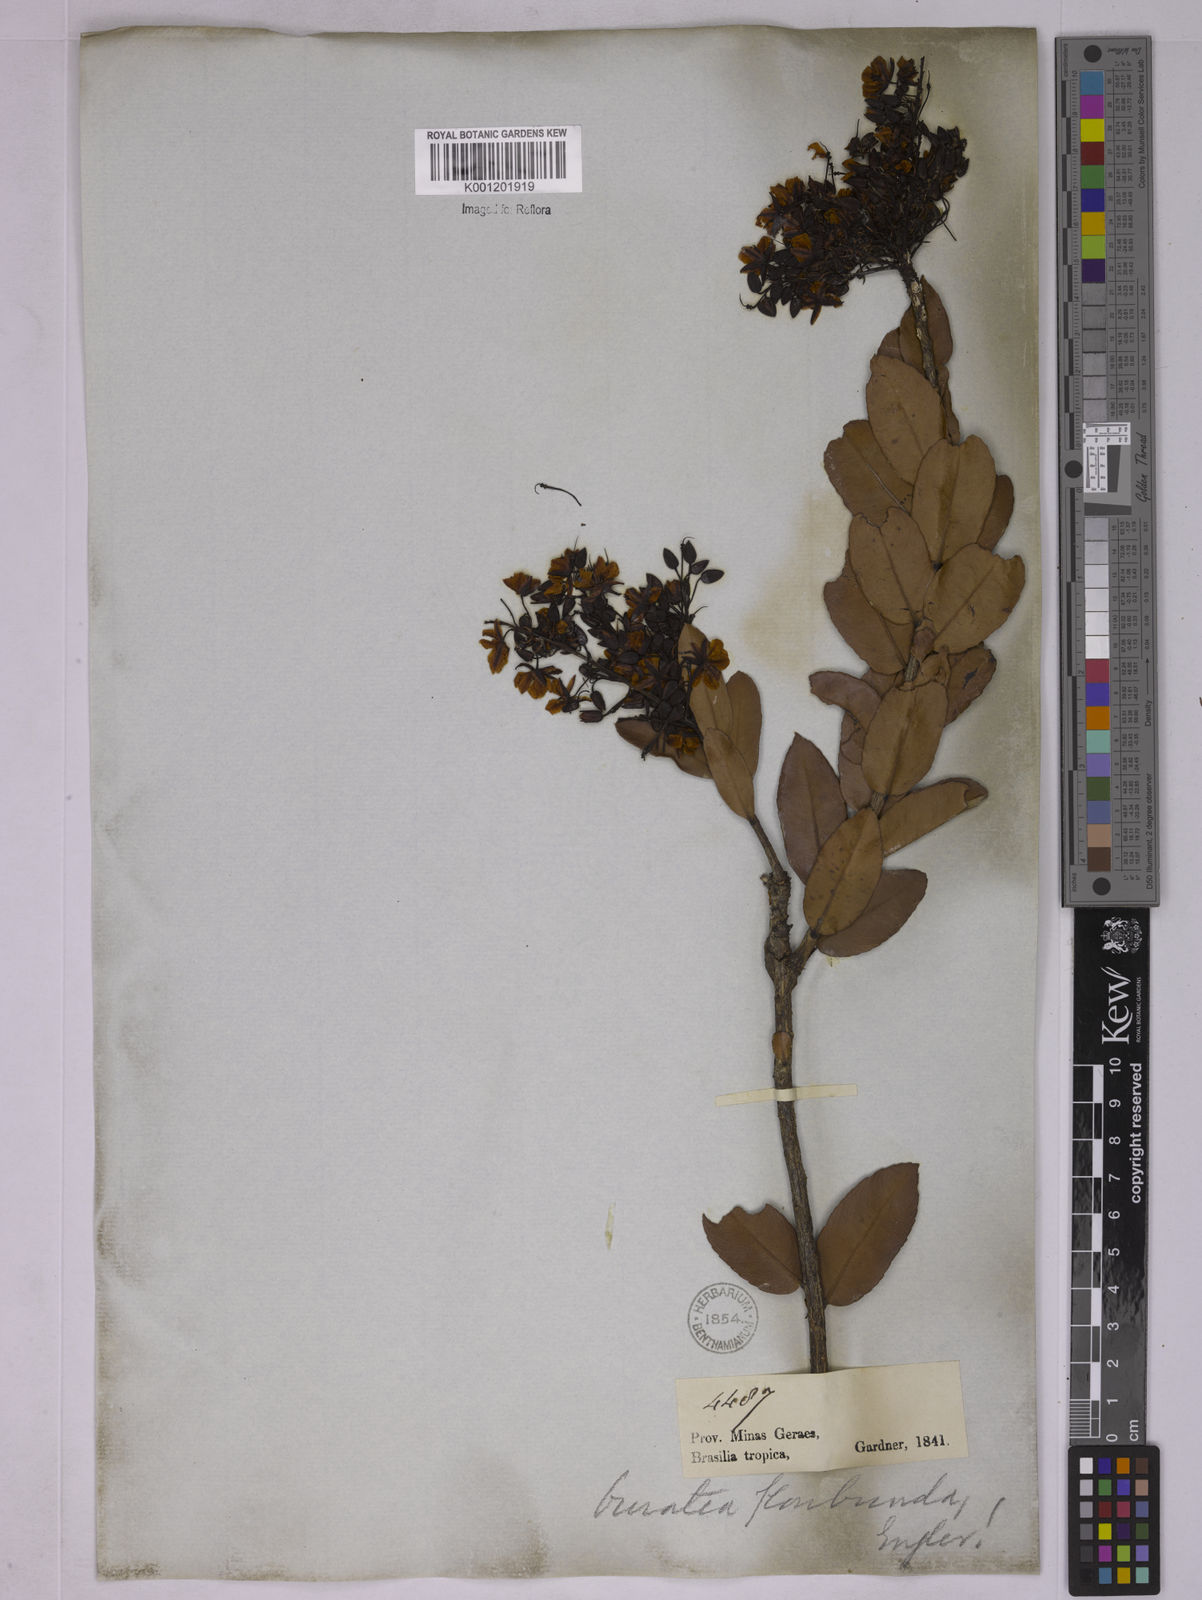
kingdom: Plantae
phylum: Tracheophyta
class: Magnoliopsida
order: Malpighiales
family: Ochnaceae
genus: Ouratea
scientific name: Ouratea floribunda
